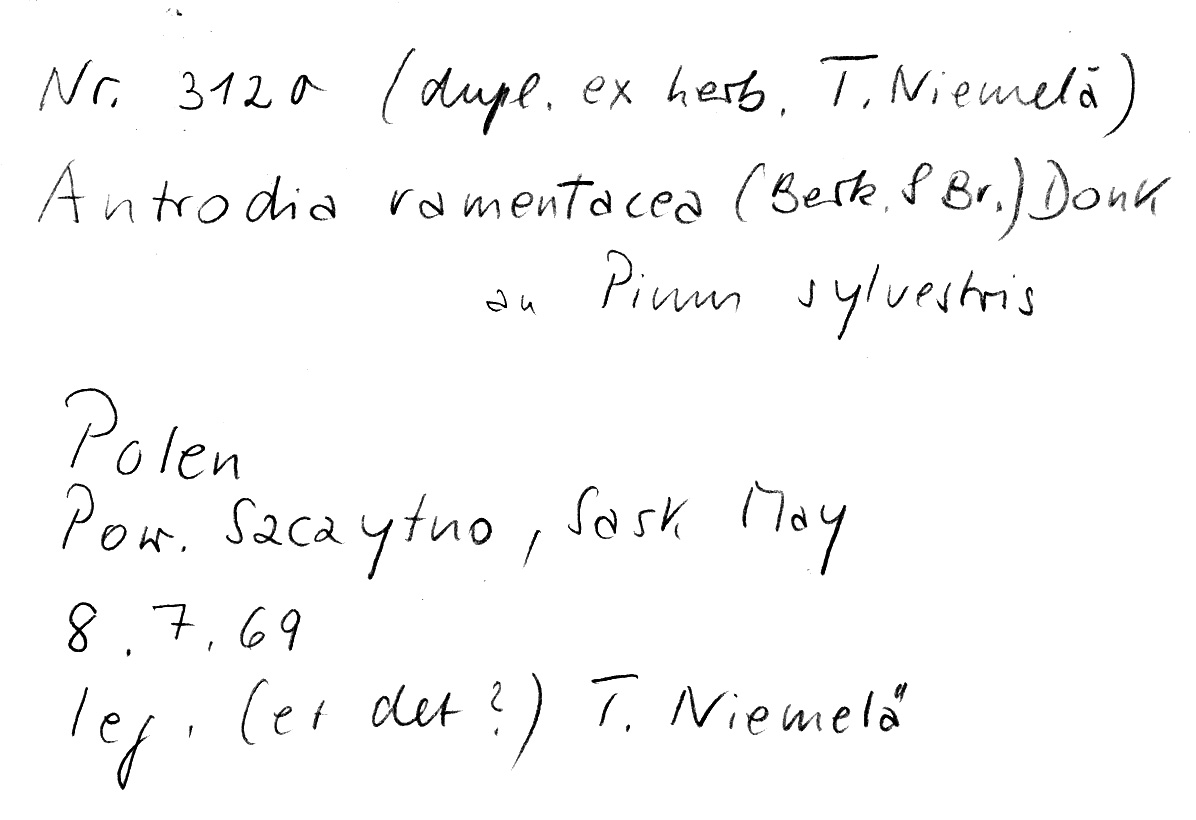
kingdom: Plantae
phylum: Tracheophyta
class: Pinopsida
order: Pinales
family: Pinaceae
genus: Pinus
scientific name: Pinus sylvestris
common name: Scots pine
